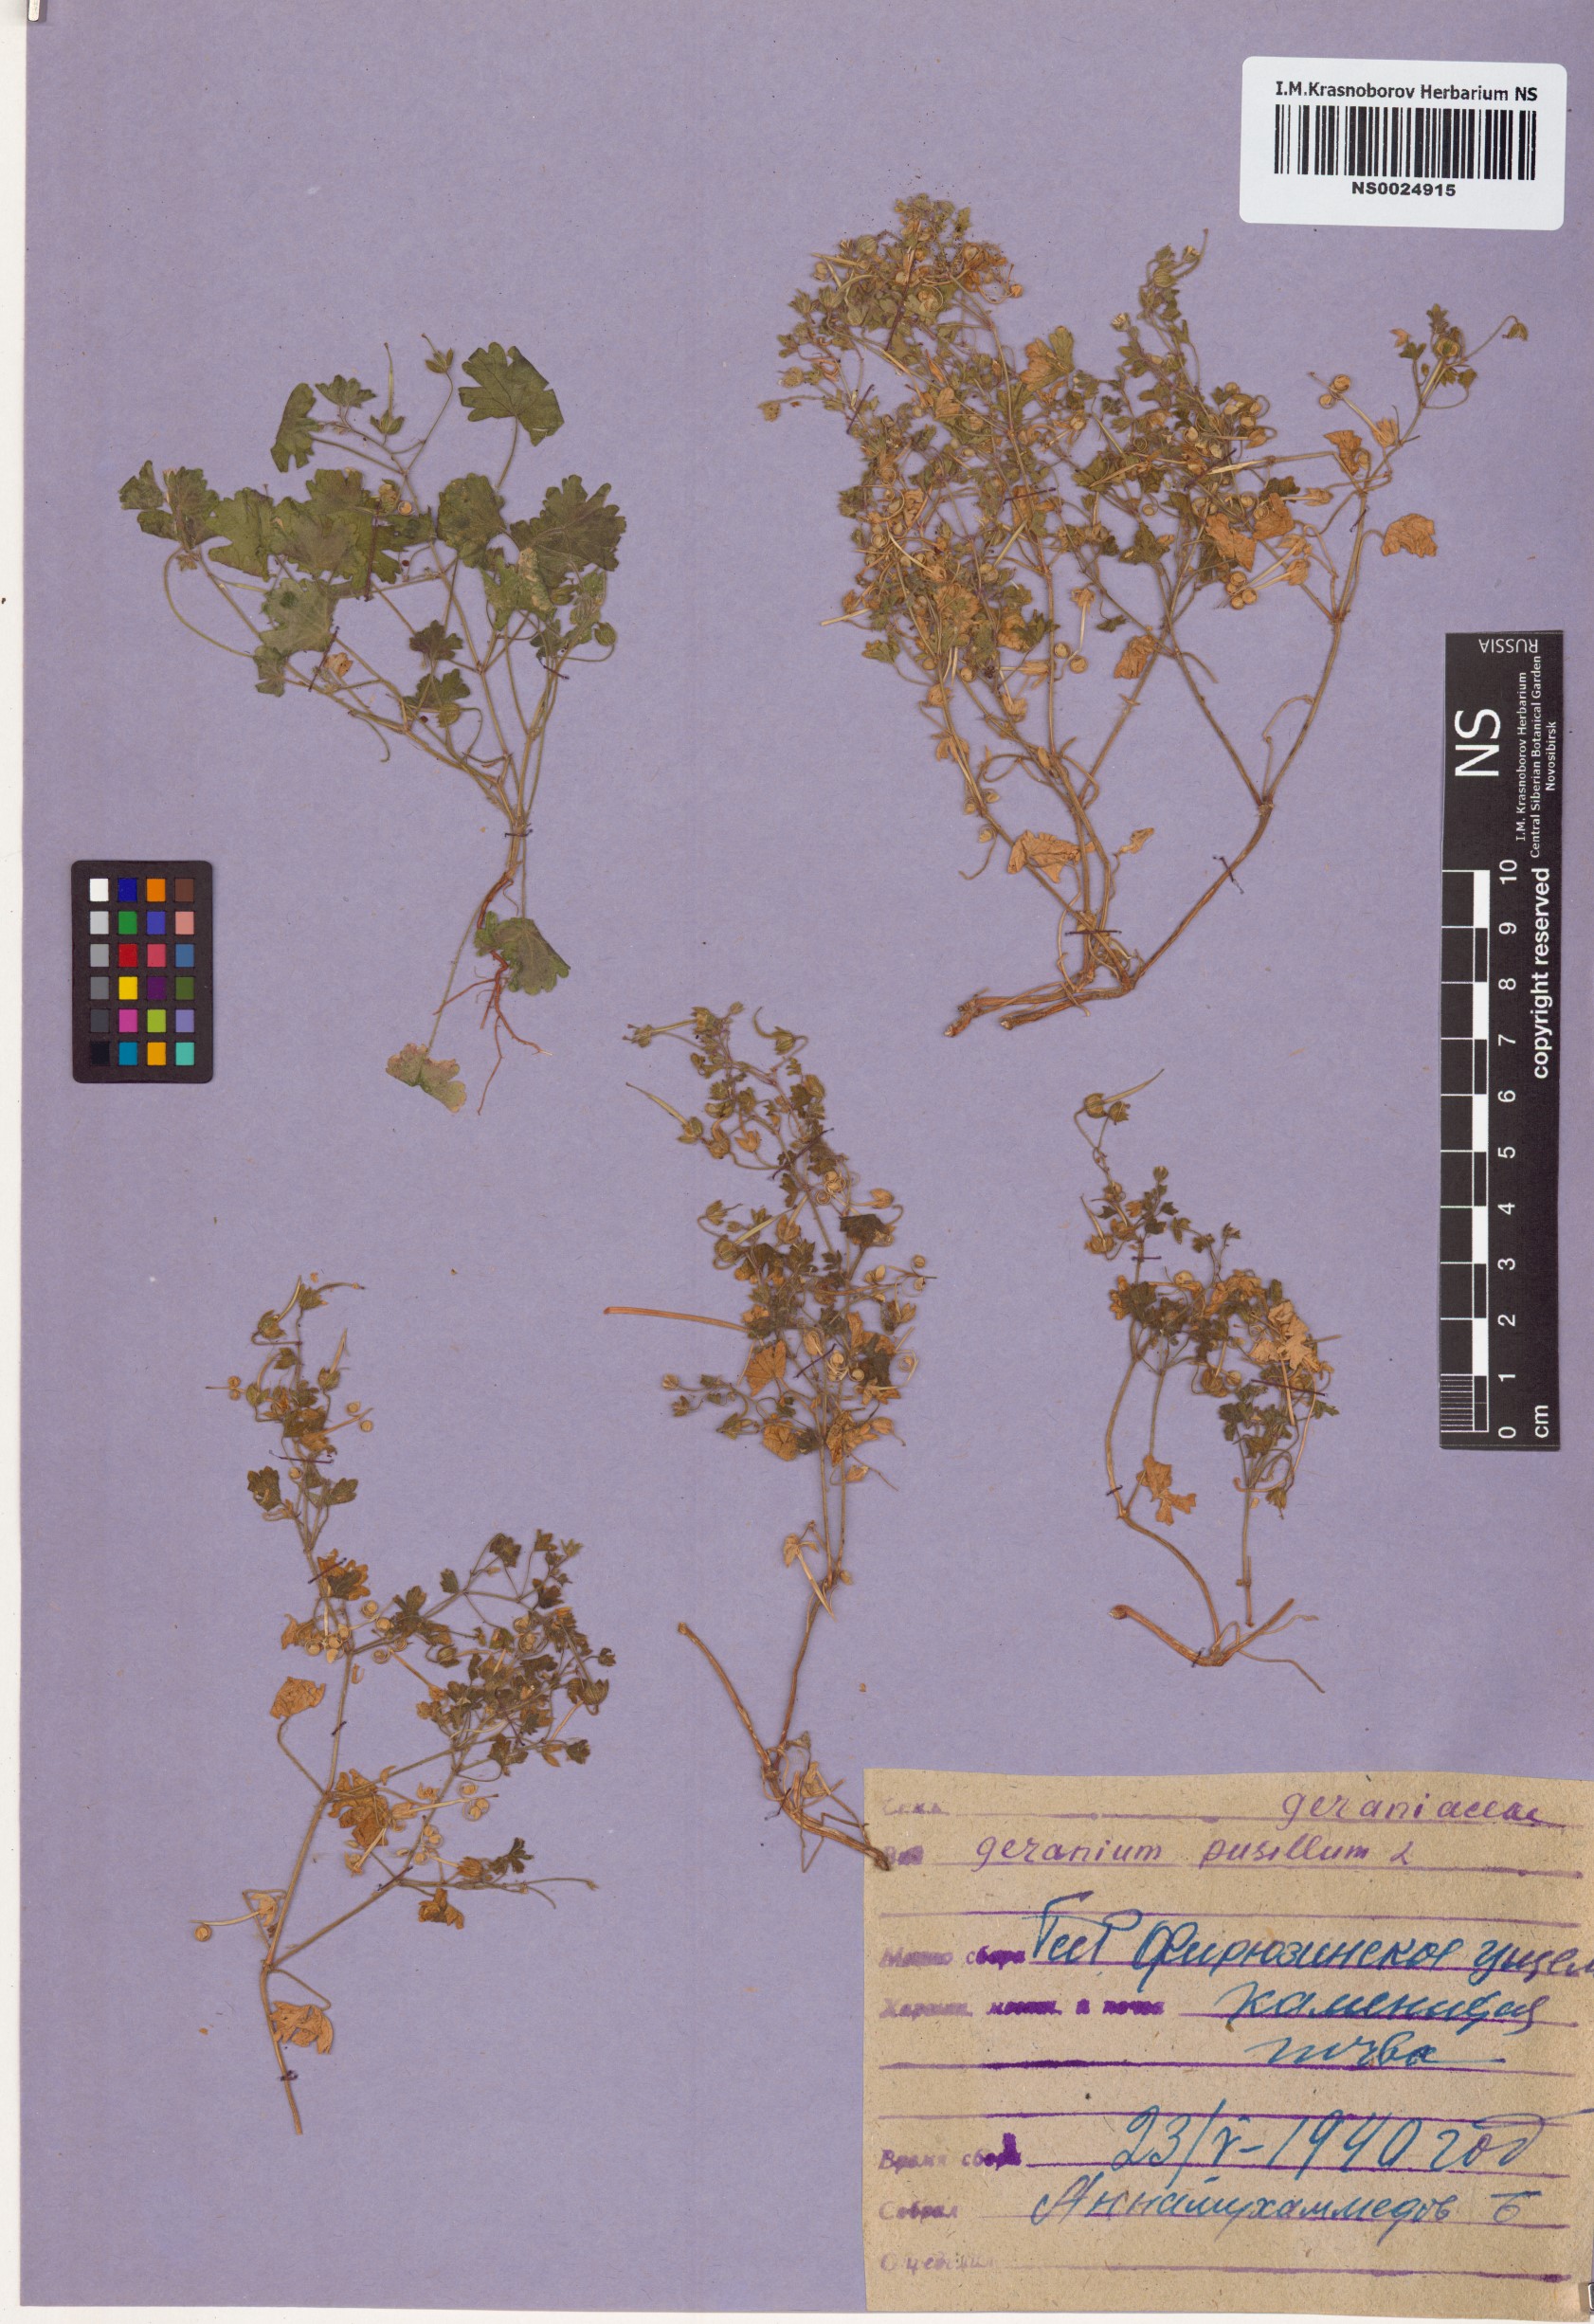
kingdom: Plantae
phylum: Tracheophyta
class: Magnoliopsida
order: Geraniales
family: Geraniaceae
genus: Geranium
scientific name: Geranium
